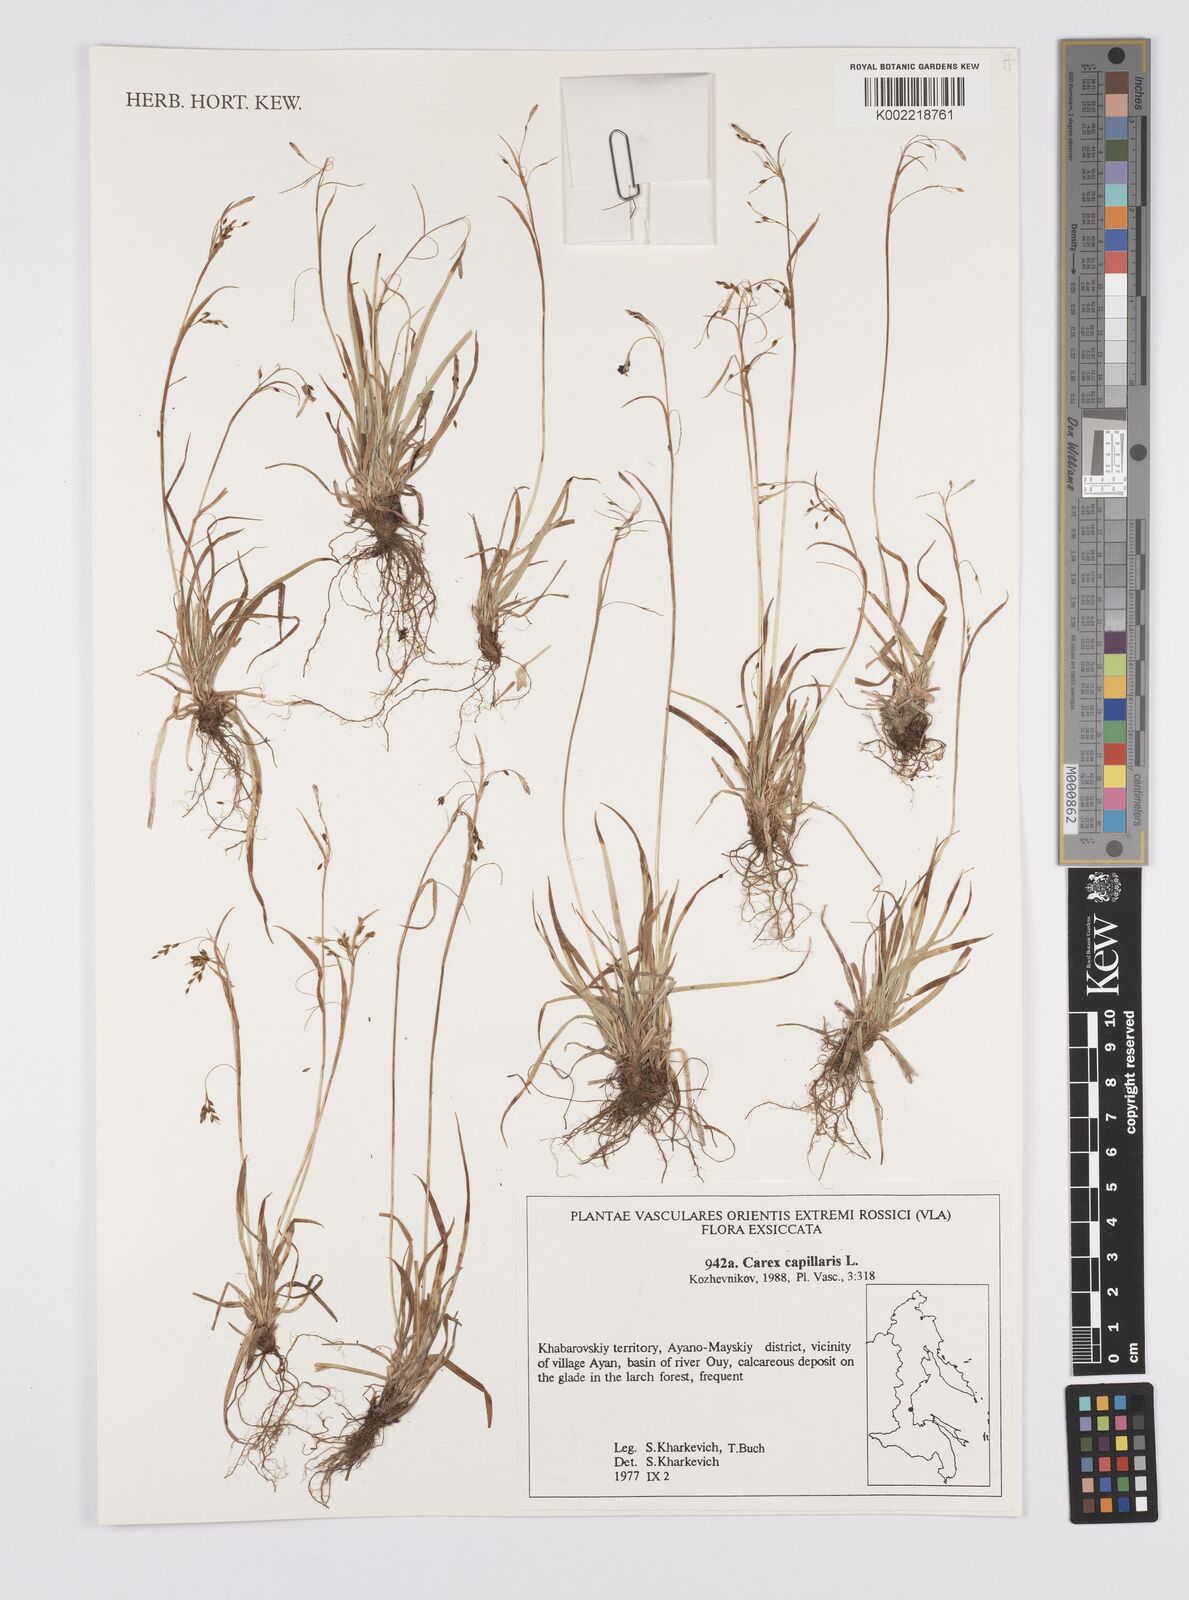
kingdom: Plantae
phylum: Tracheophyta
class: Liliopsida
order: Poales
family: Cyperaceae
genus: Carex
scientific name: Carex capillaris
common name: Hair sedge
